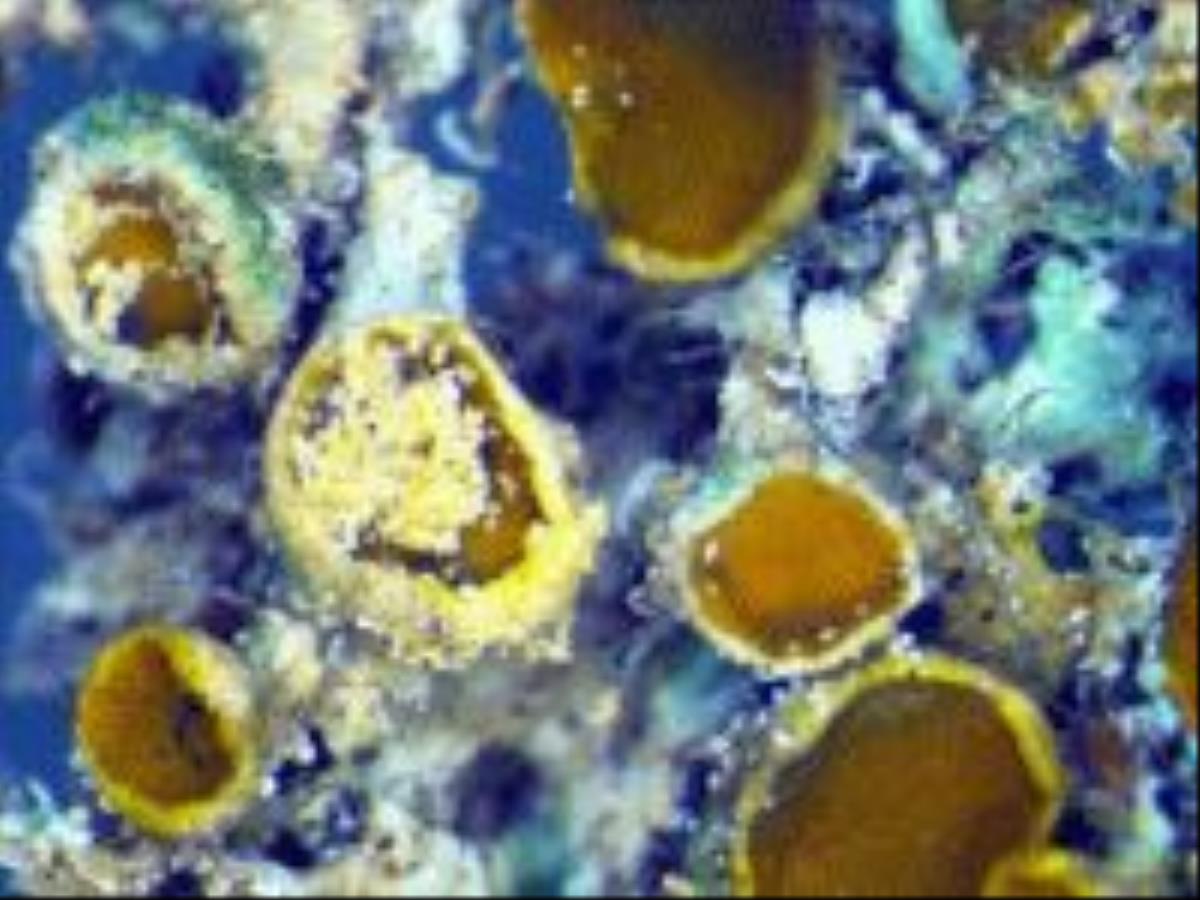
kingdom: Fungi
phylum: Ascomycota
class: Sordariomycetes
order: Hypocreales
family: Nectriaceae
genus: Fusarium
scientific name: Fusarium
